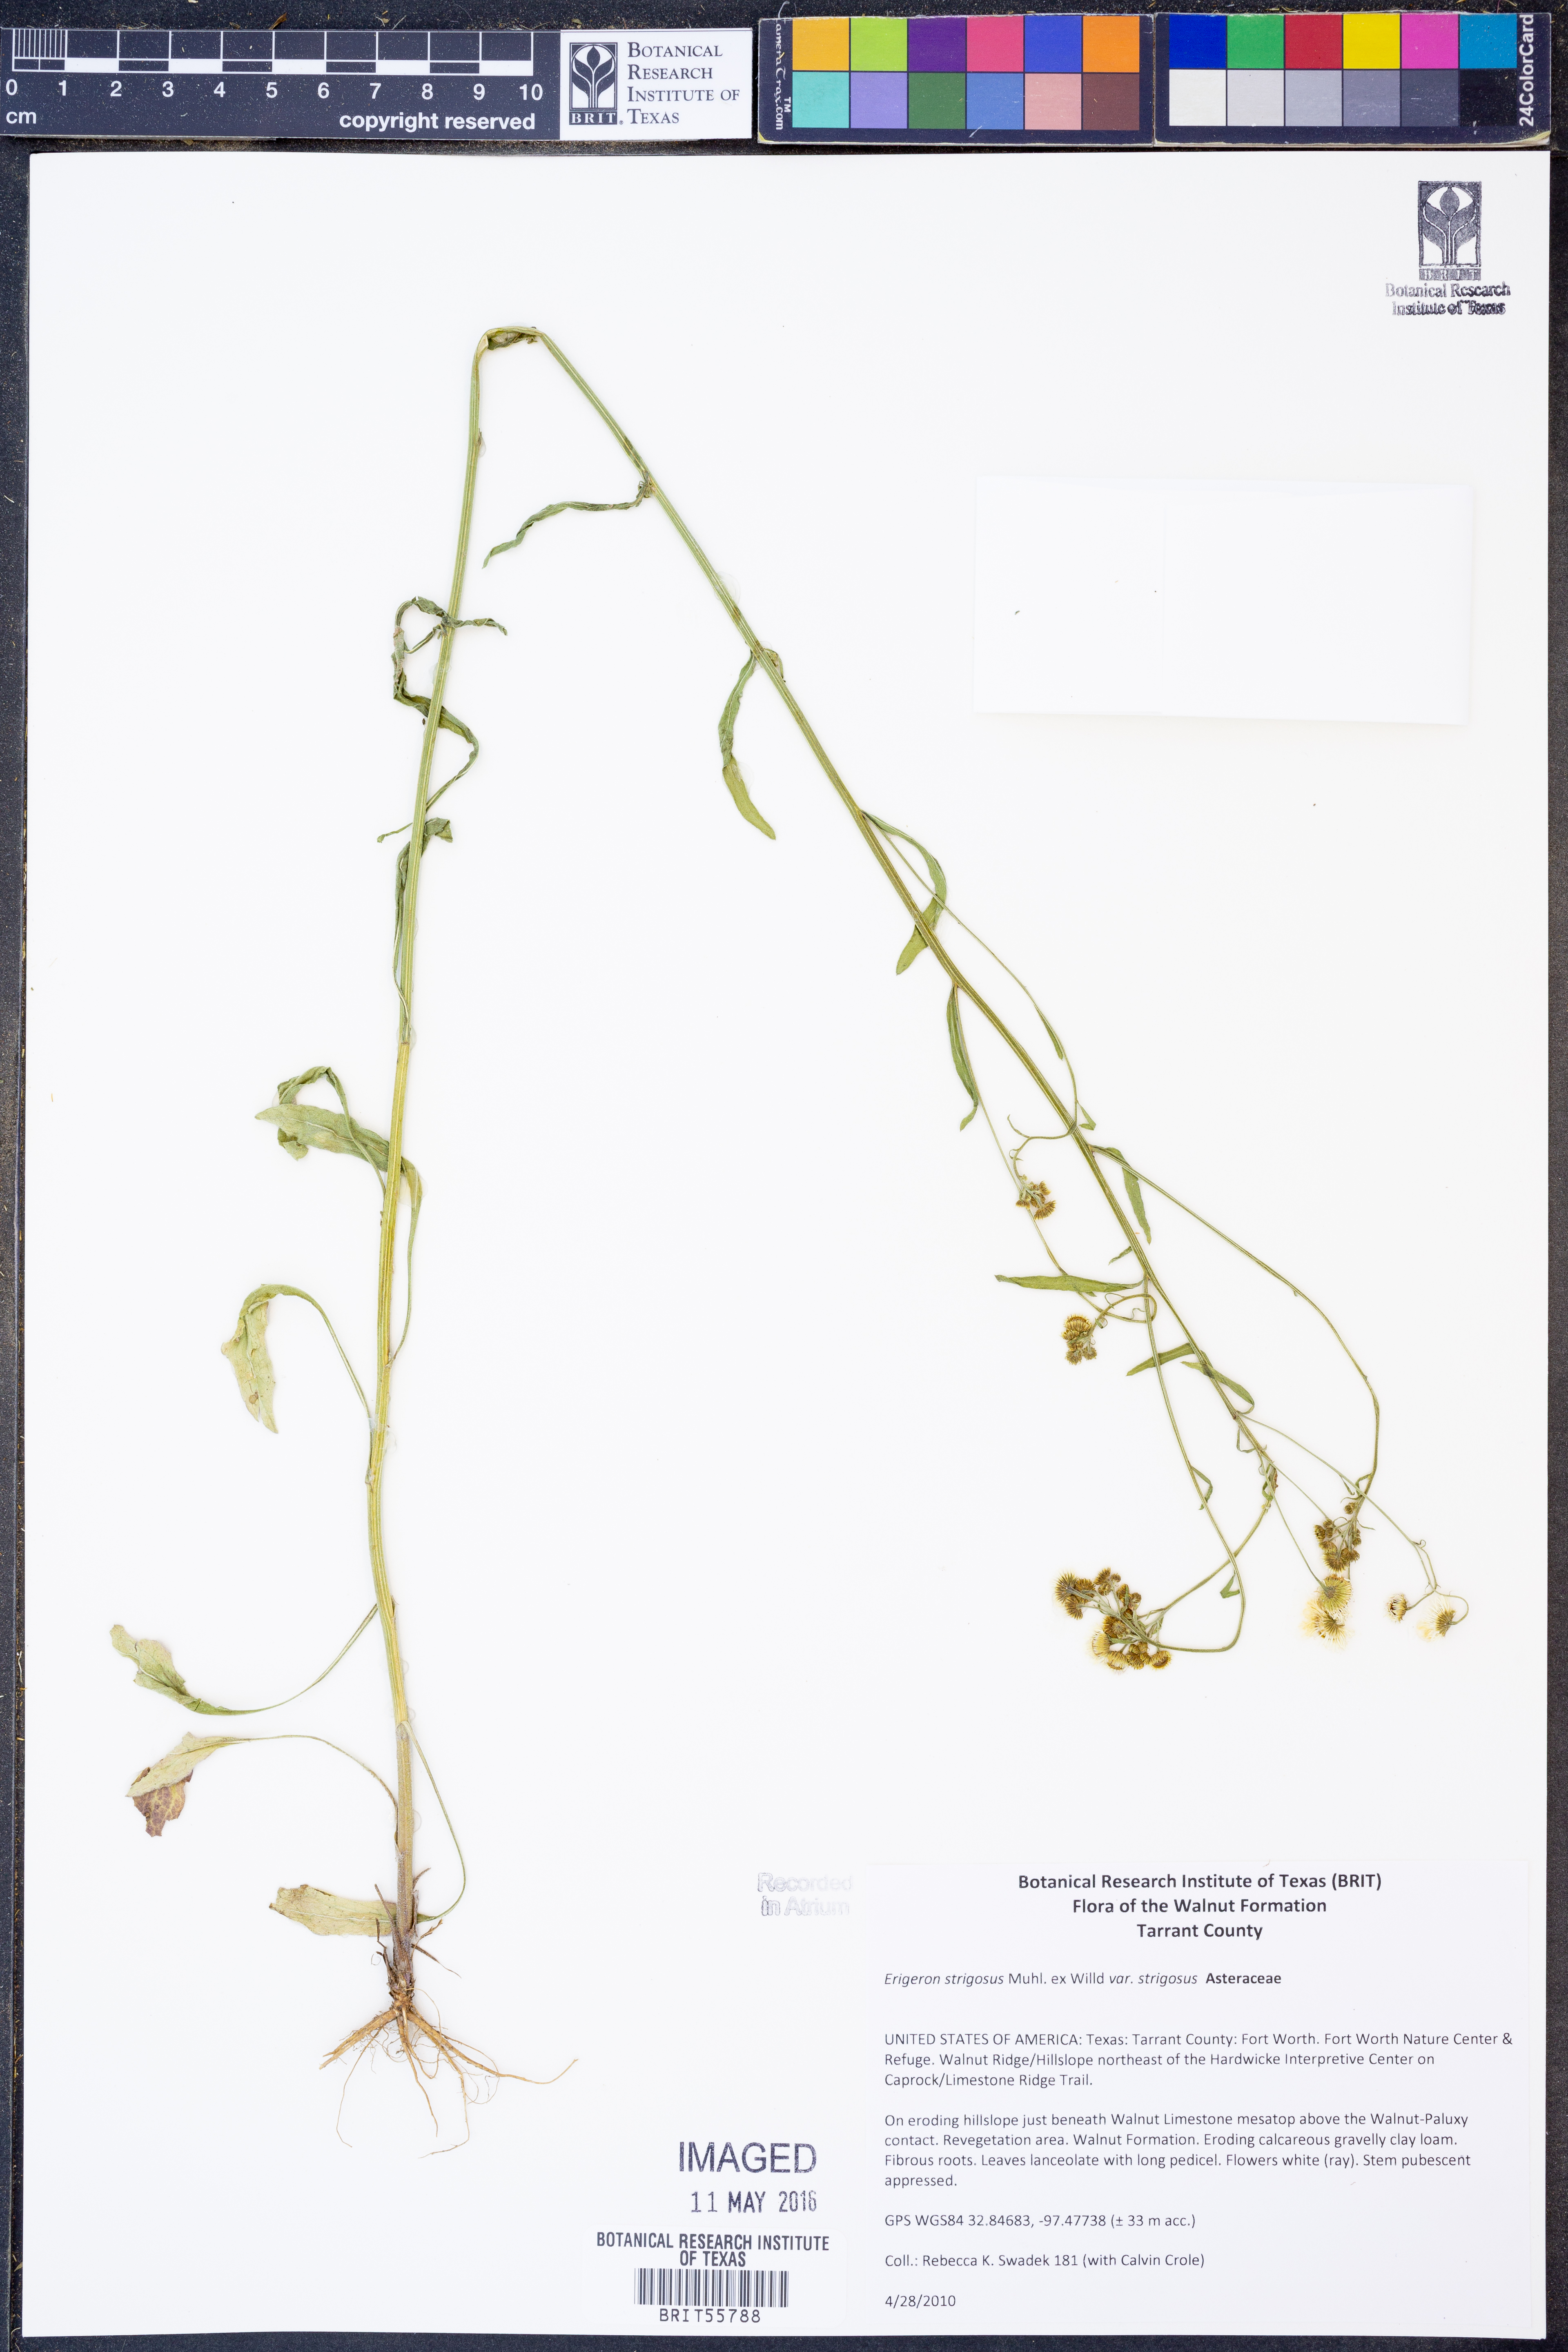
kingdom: Plantae
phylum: Tracheophyta
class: Magnoliopsida
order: Asterales
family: Asteraceae
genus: Erigeron
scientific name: Erigeron strigosus
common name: Common eastern fleabane
